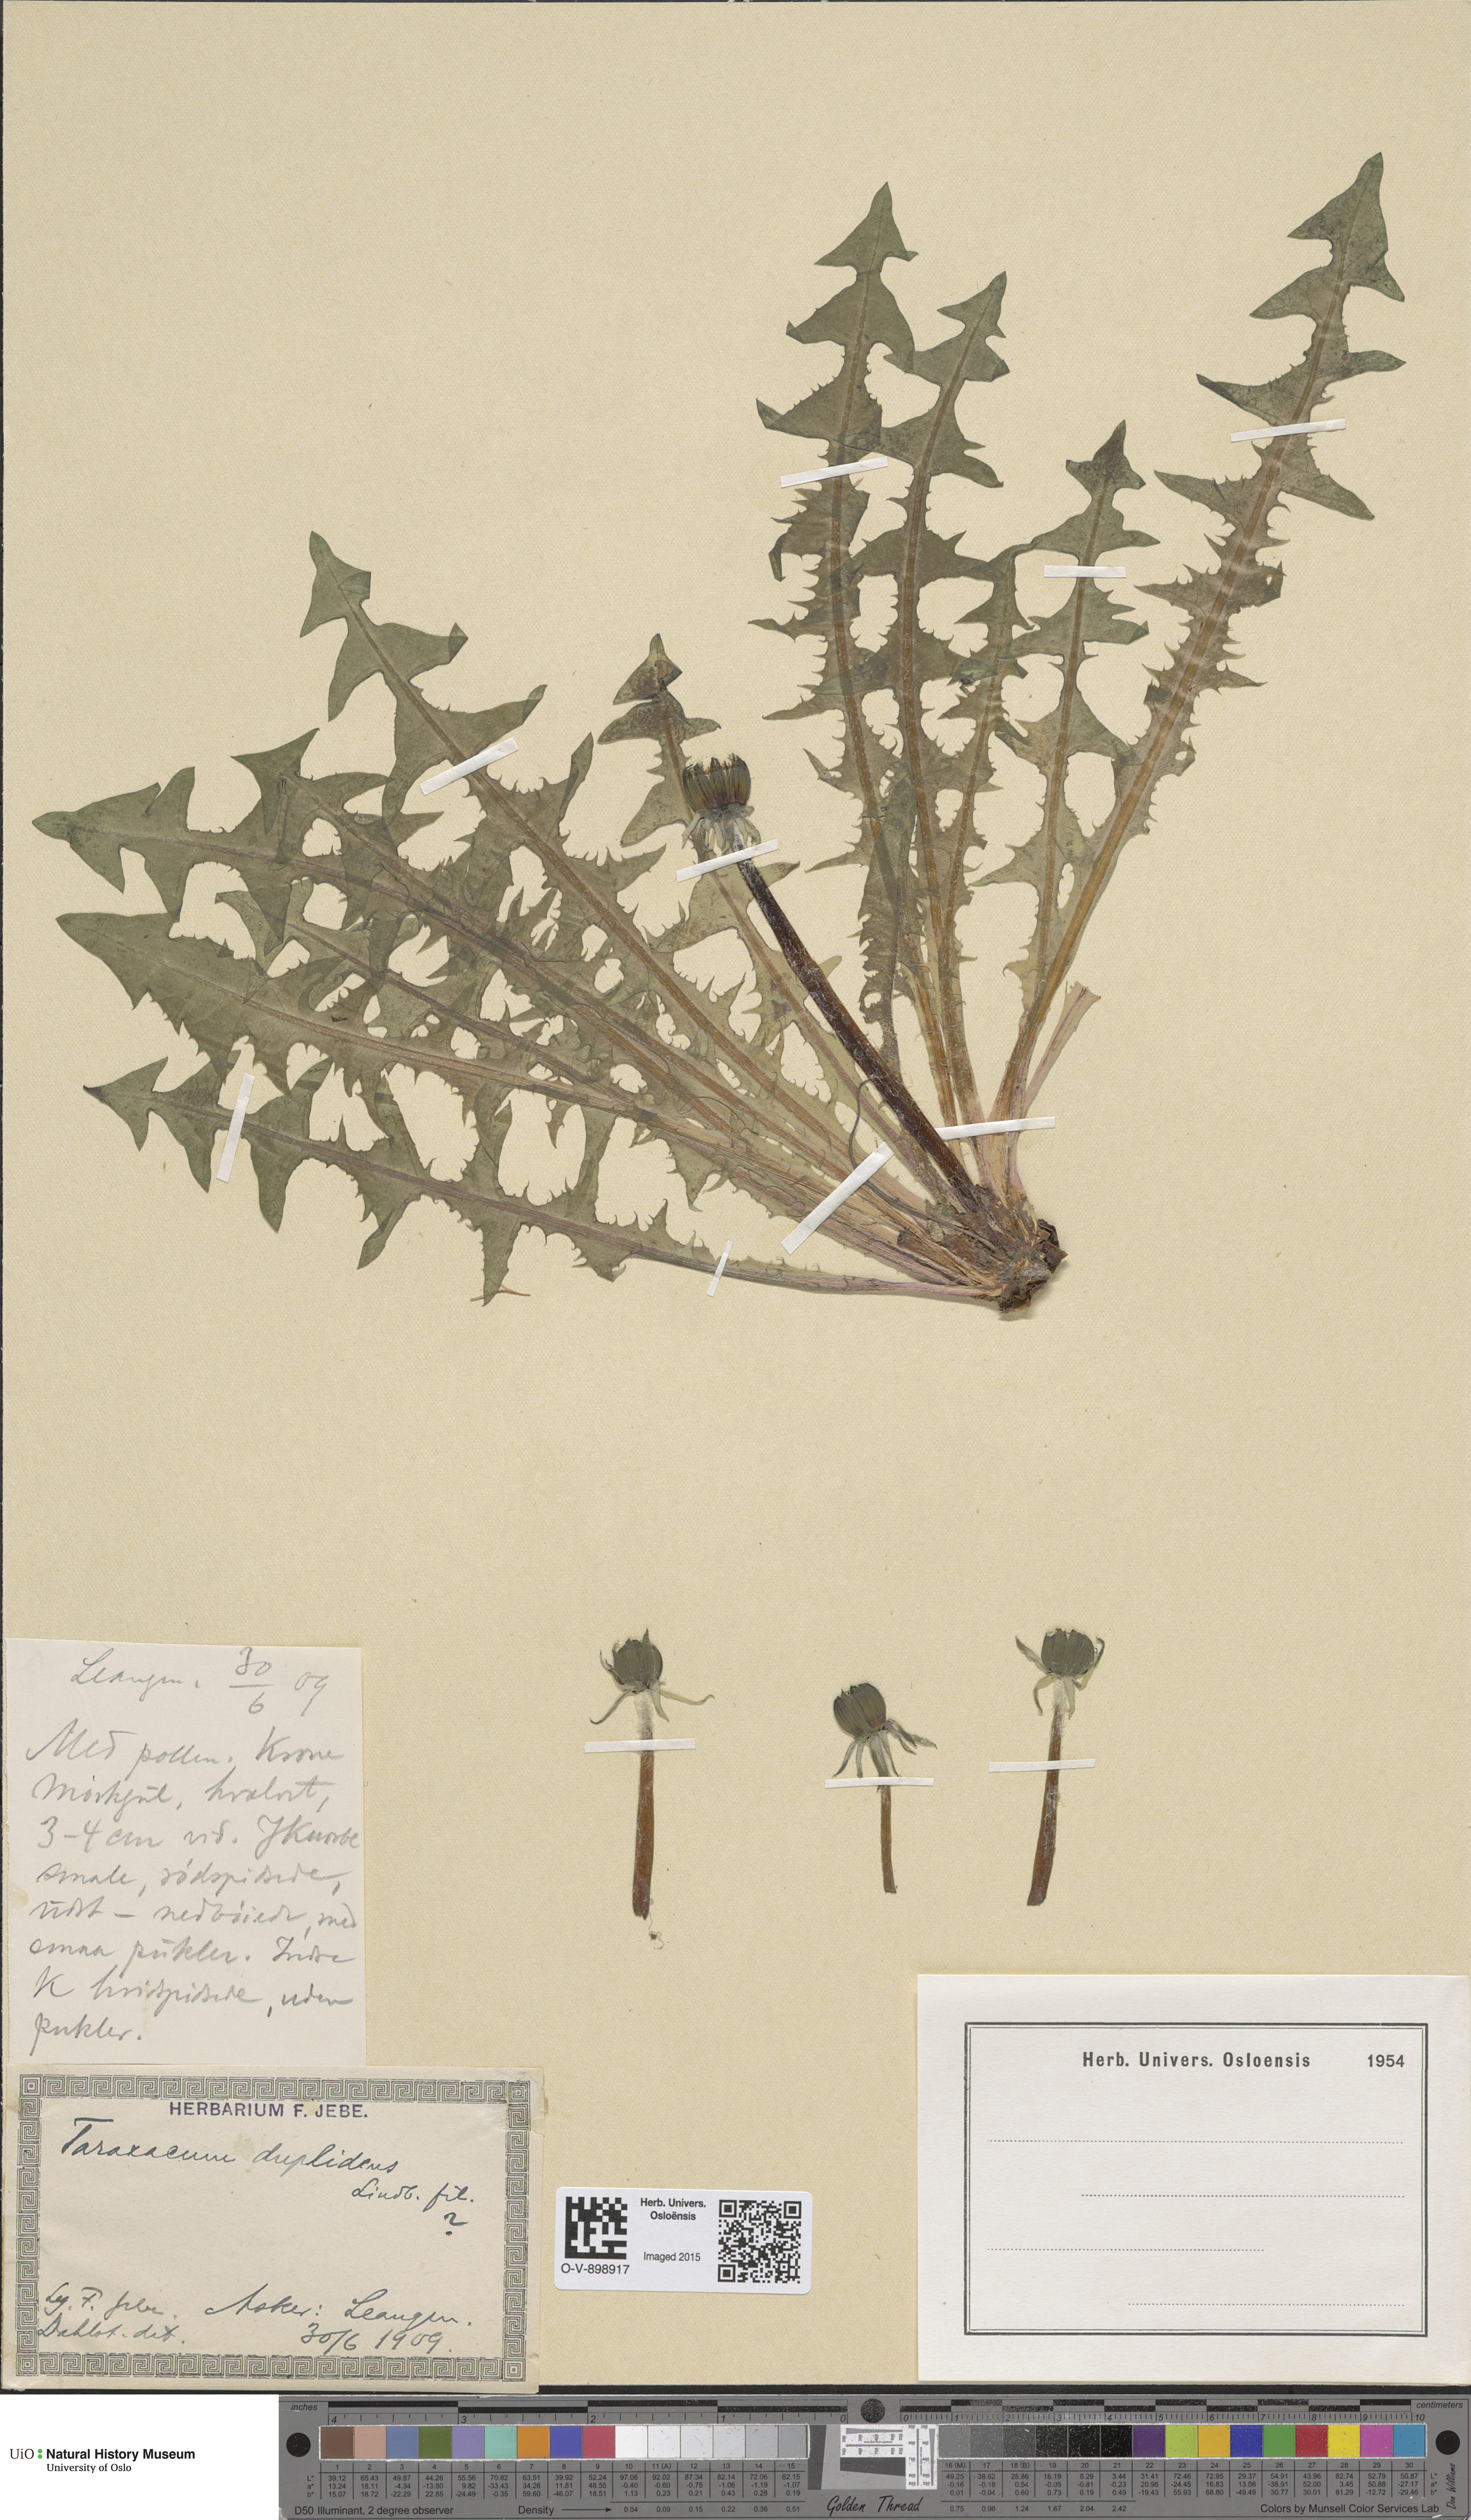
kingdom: Plantae
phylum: Tracheophyta
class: Magnoliopsida
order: Asterales
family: Asteraceae
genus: Taraxacum
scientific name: Taraxacum ostenfeldii
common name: Ostenfeld's dandelion
